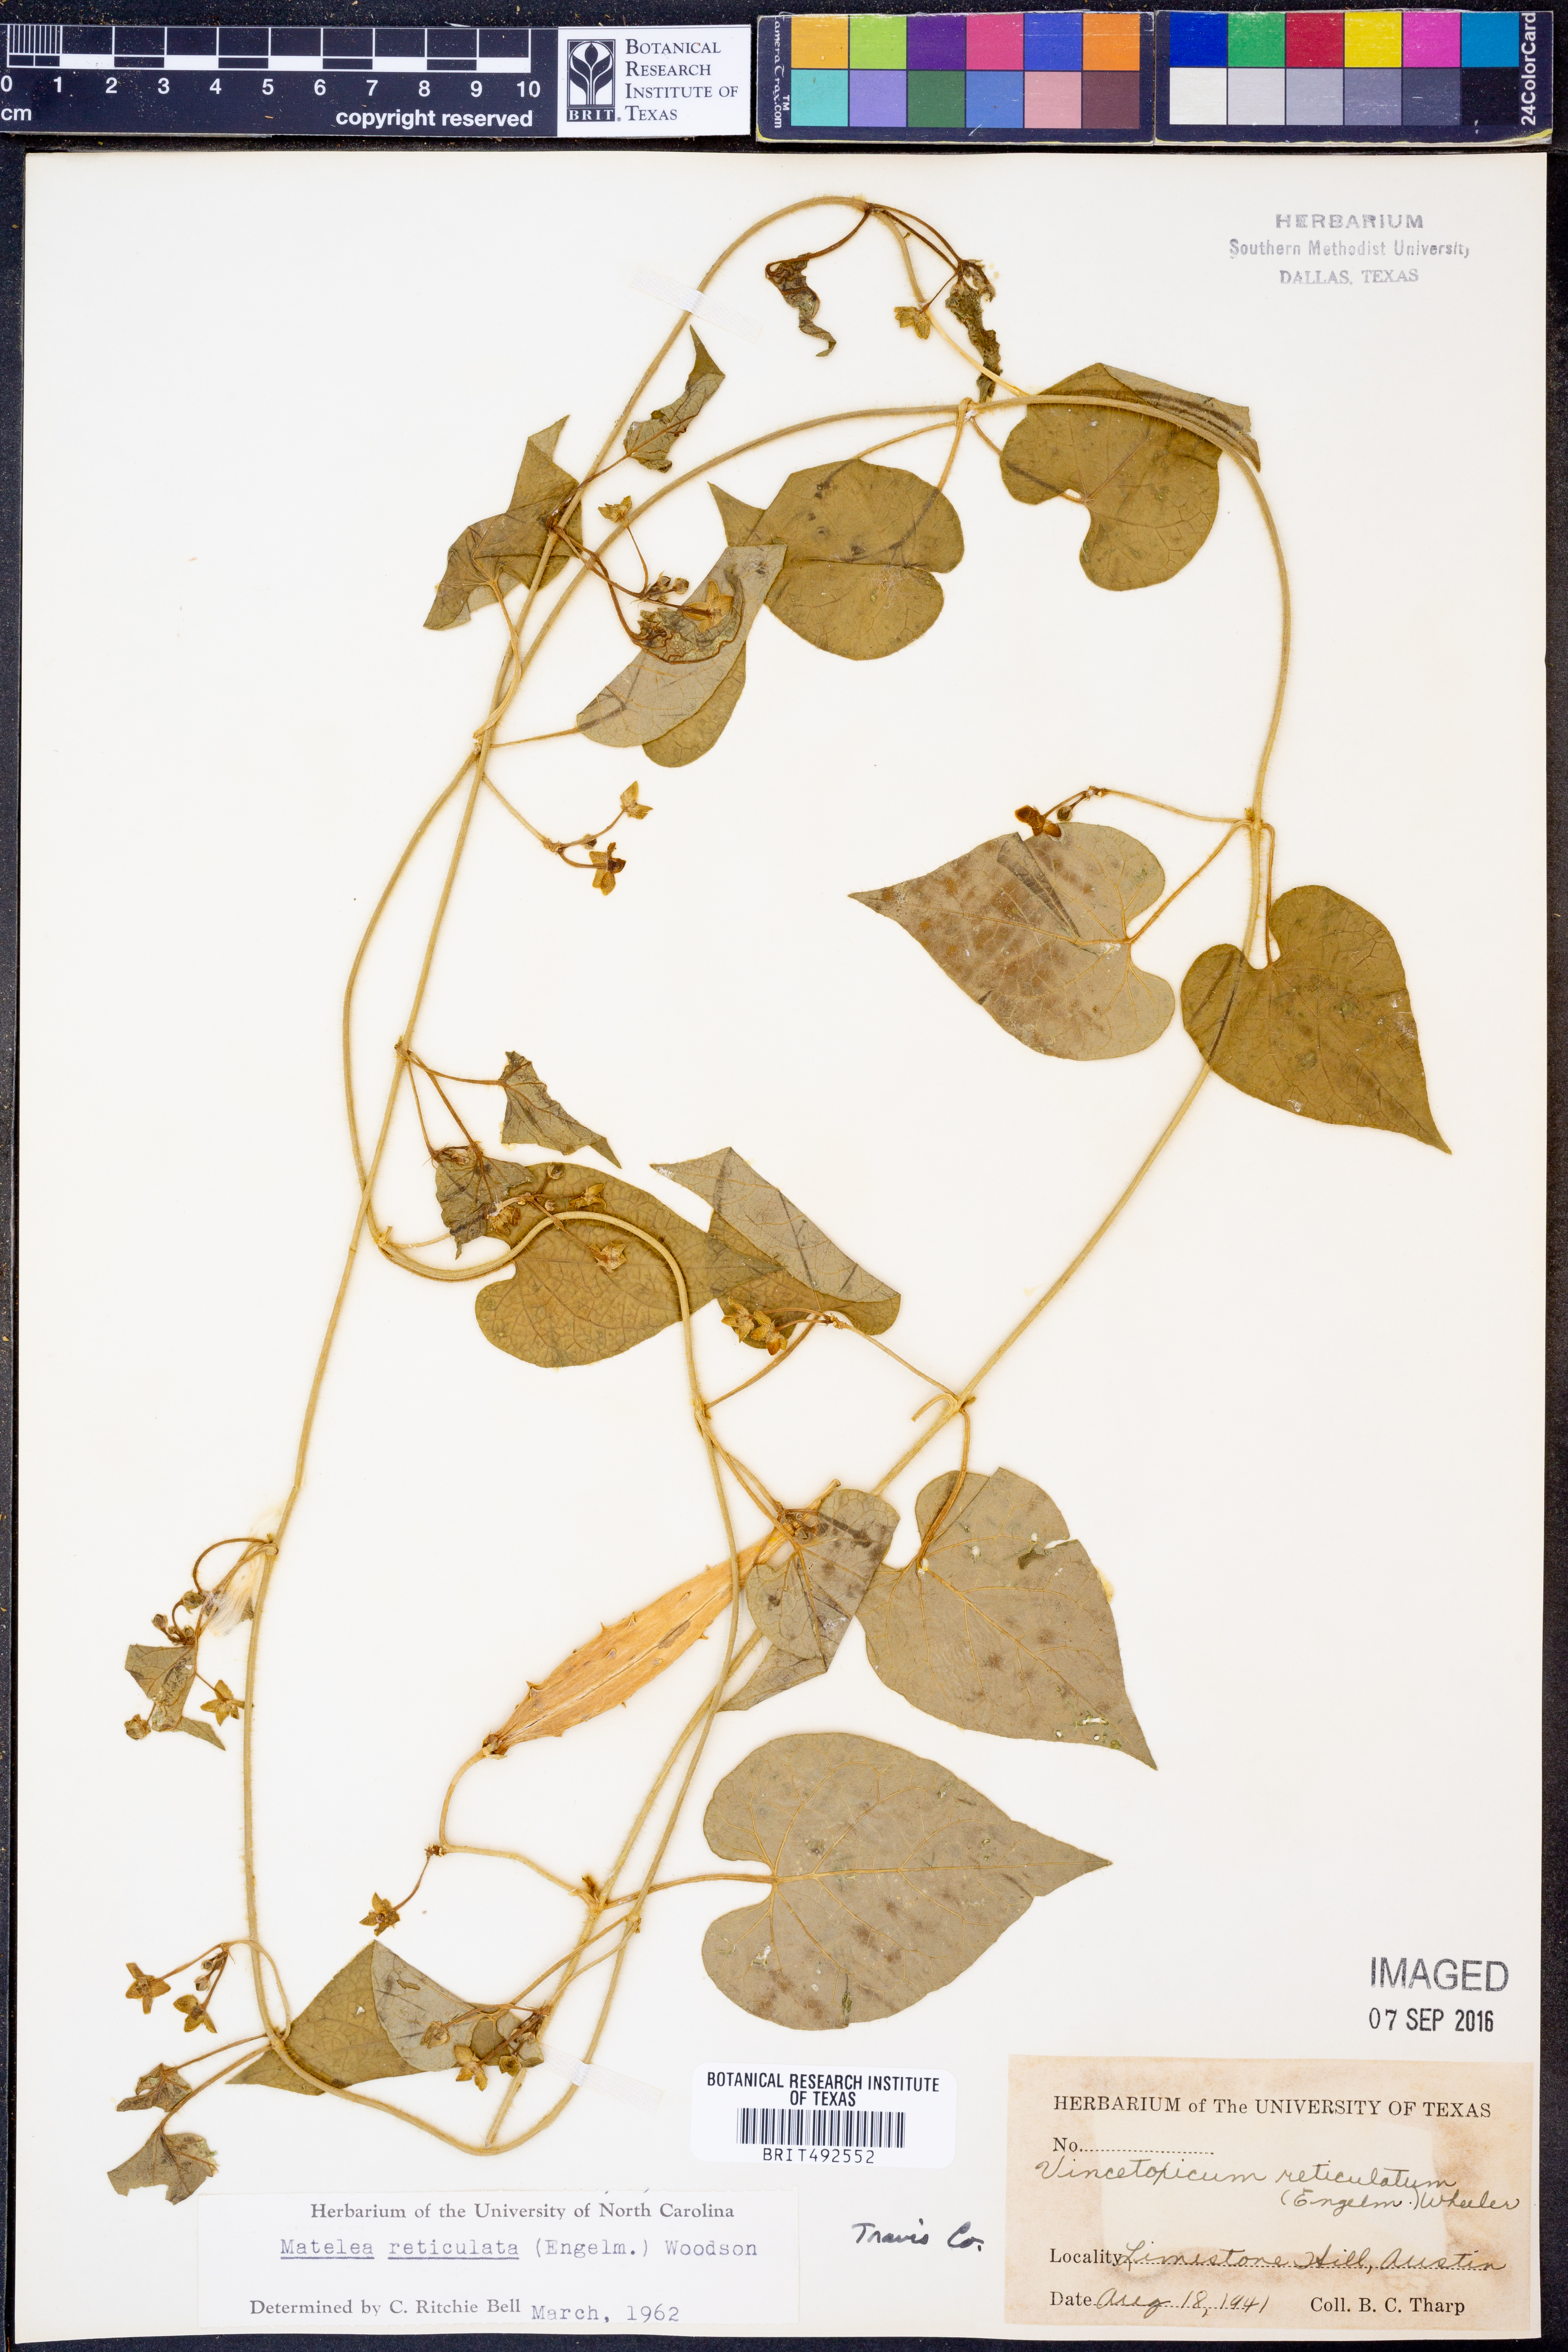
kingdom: Plantae
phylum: Tracheophyta
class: Magnoliopsida
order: Gentianales
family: Apocynaceae
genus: Dictyanthus
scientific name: Dictyanthus reticulatus
